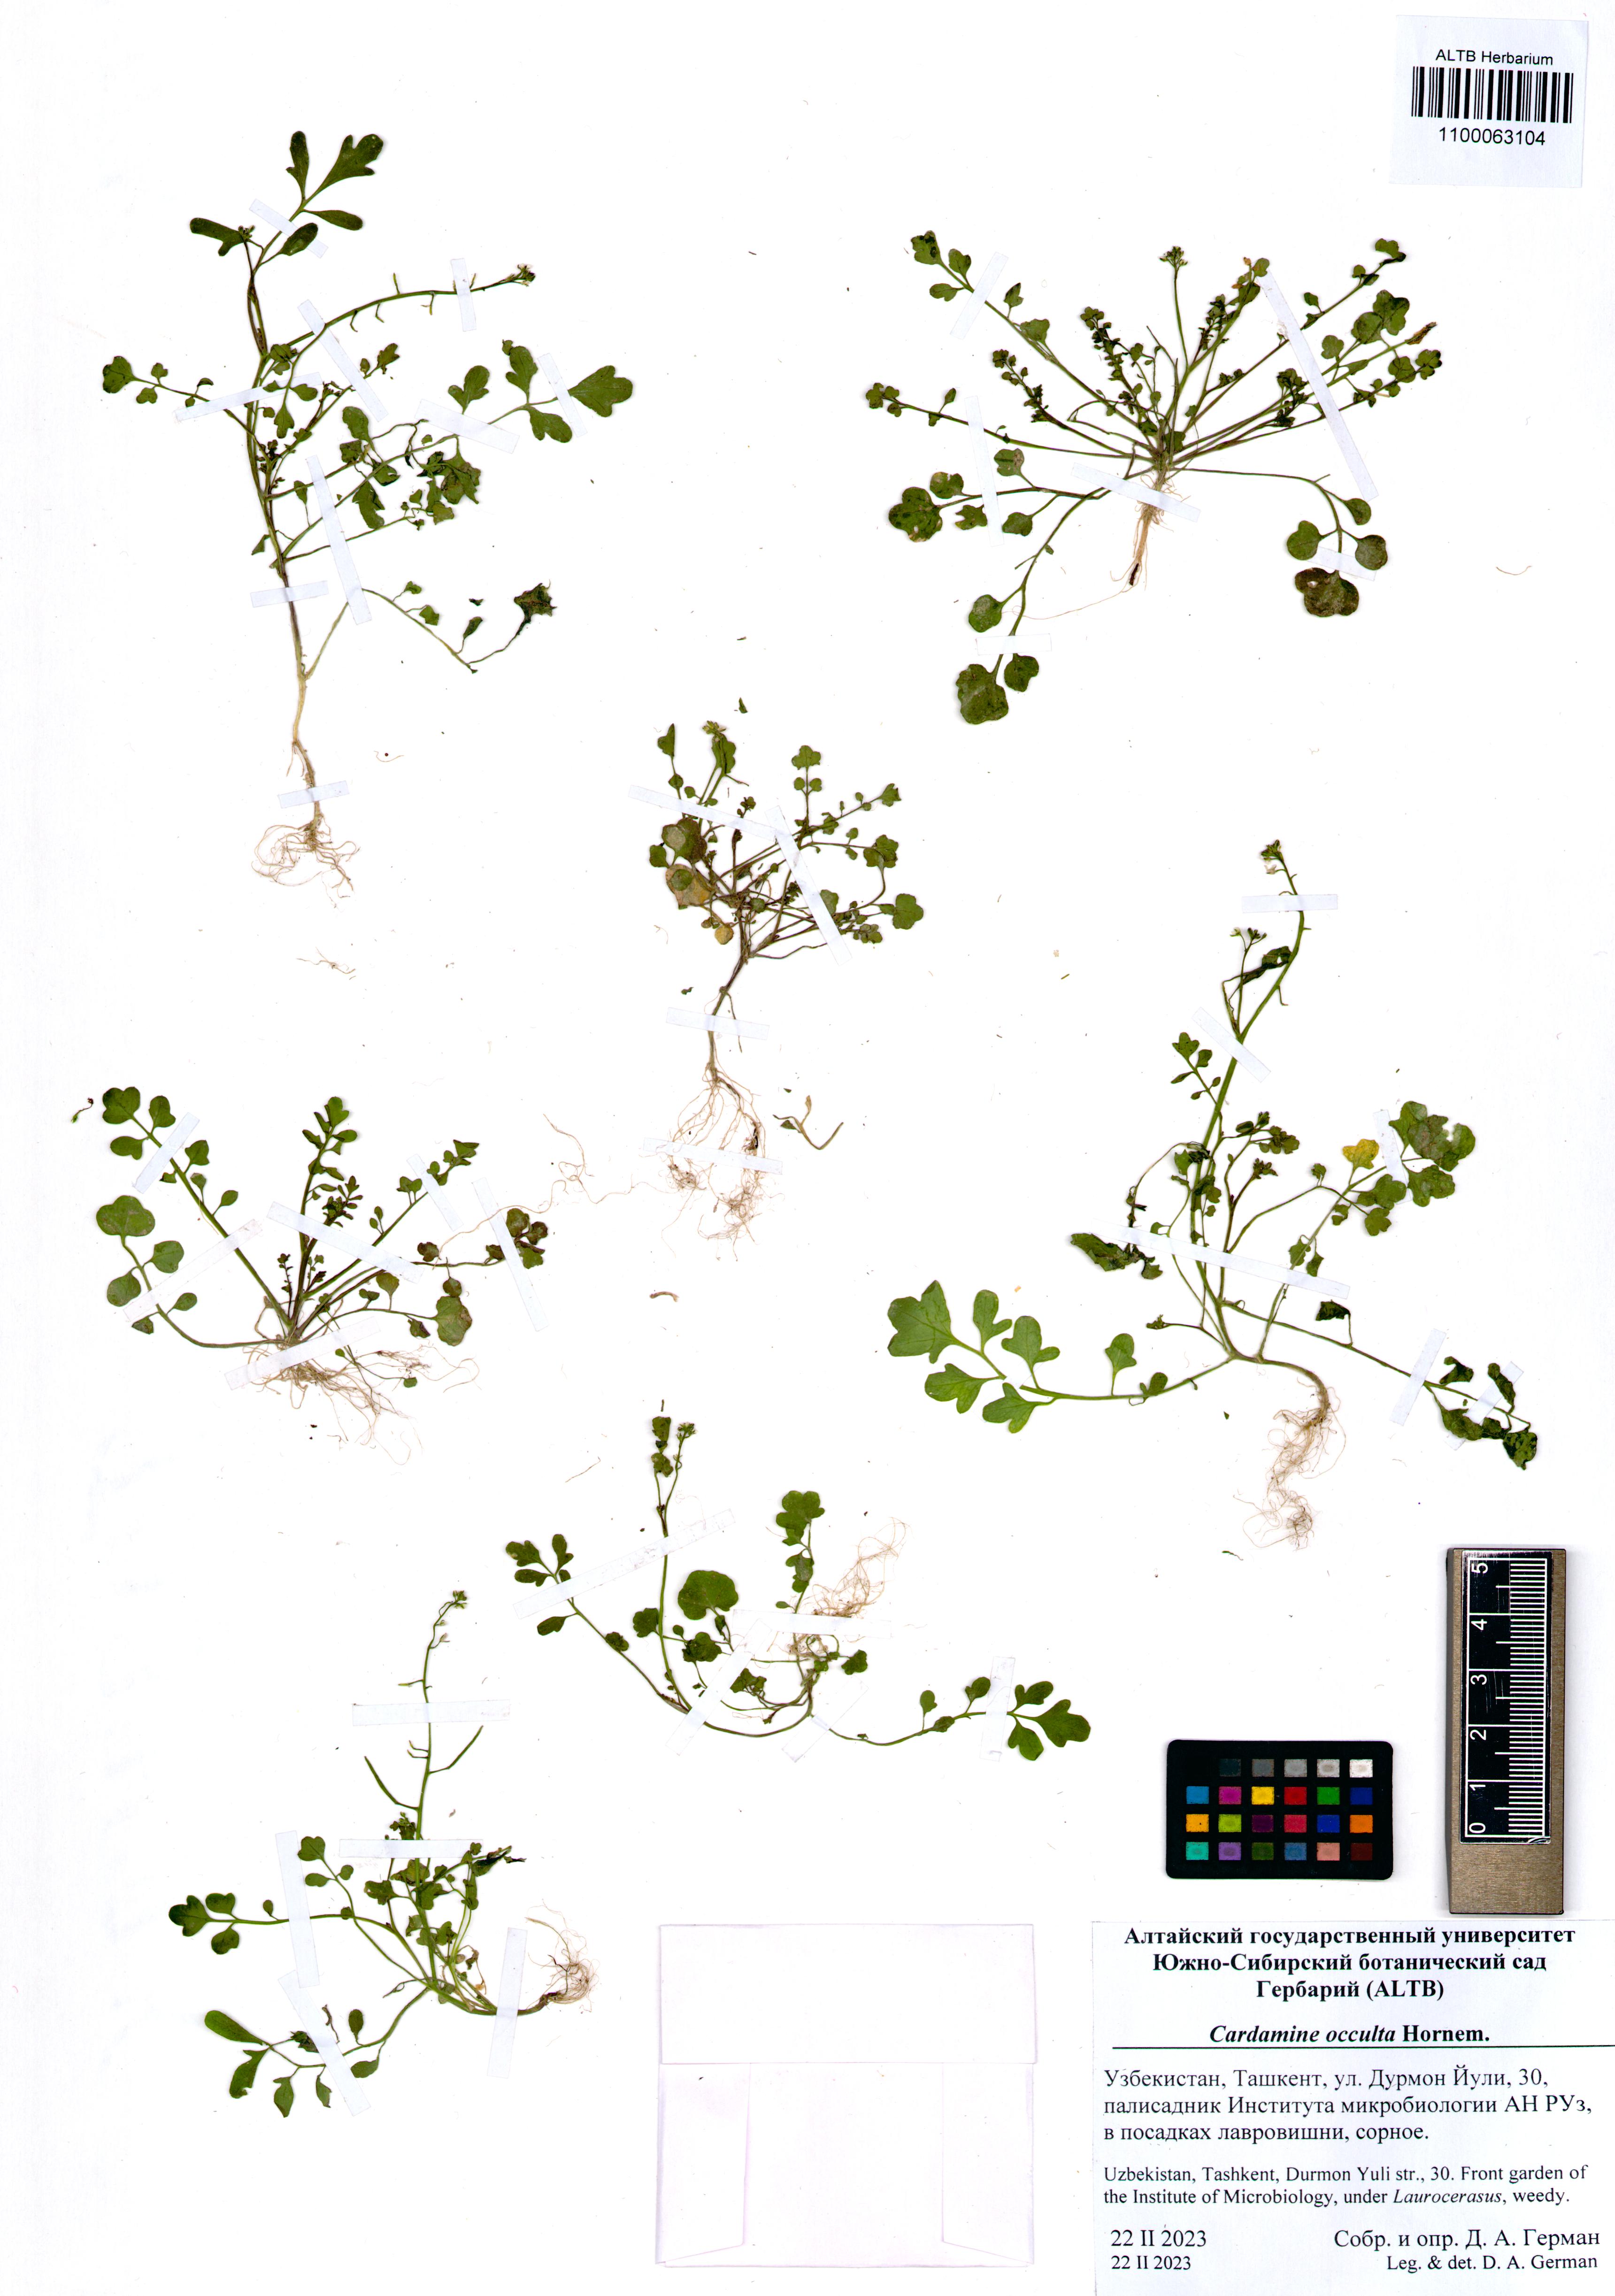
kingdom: Plantae
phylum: Tracheophyta
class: Magnoliopsida
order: Brassicales
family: Brassicaceae
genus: Cardamine
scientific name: Cardamine occulta
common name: Asian wavy bittercress
